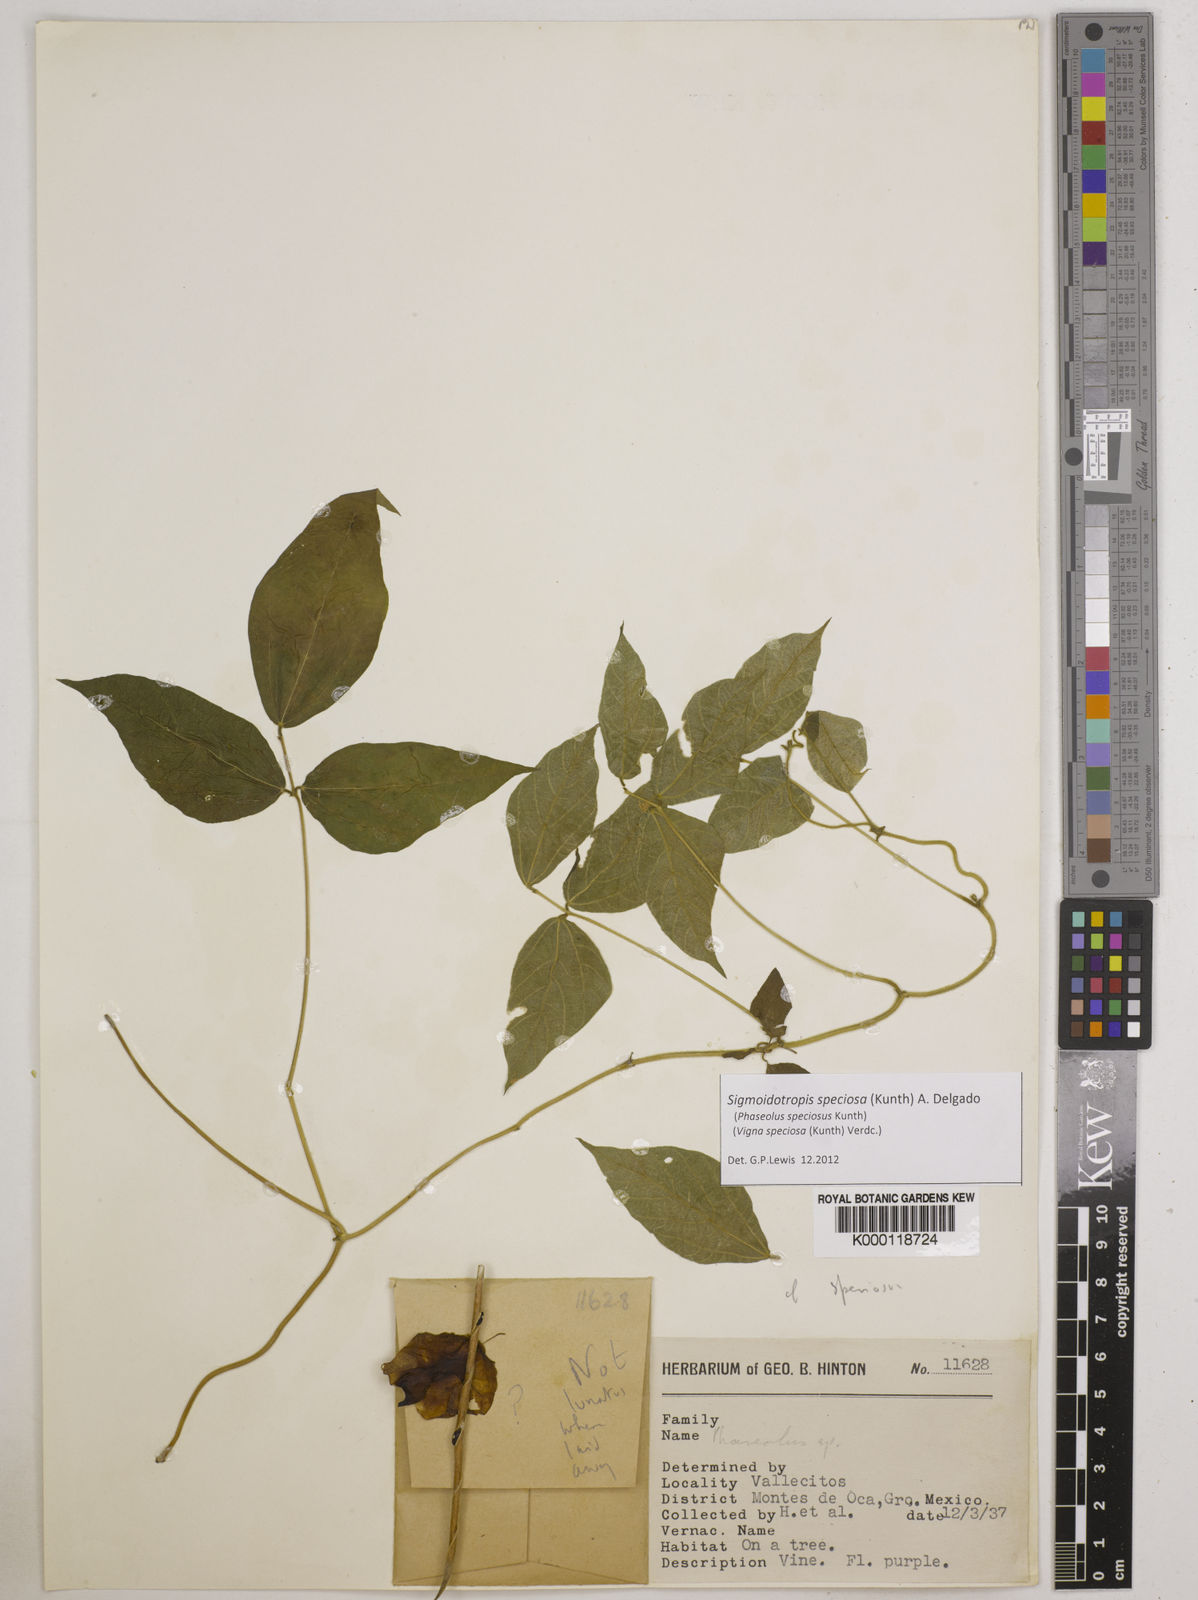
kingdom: Plantae
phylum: Tracheophyta
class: Magnoliopsida
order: Fabales
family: Fabaceae
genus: Sigmoidotropis
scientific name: Sigmoidotropis speciosa
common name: Snail flower
